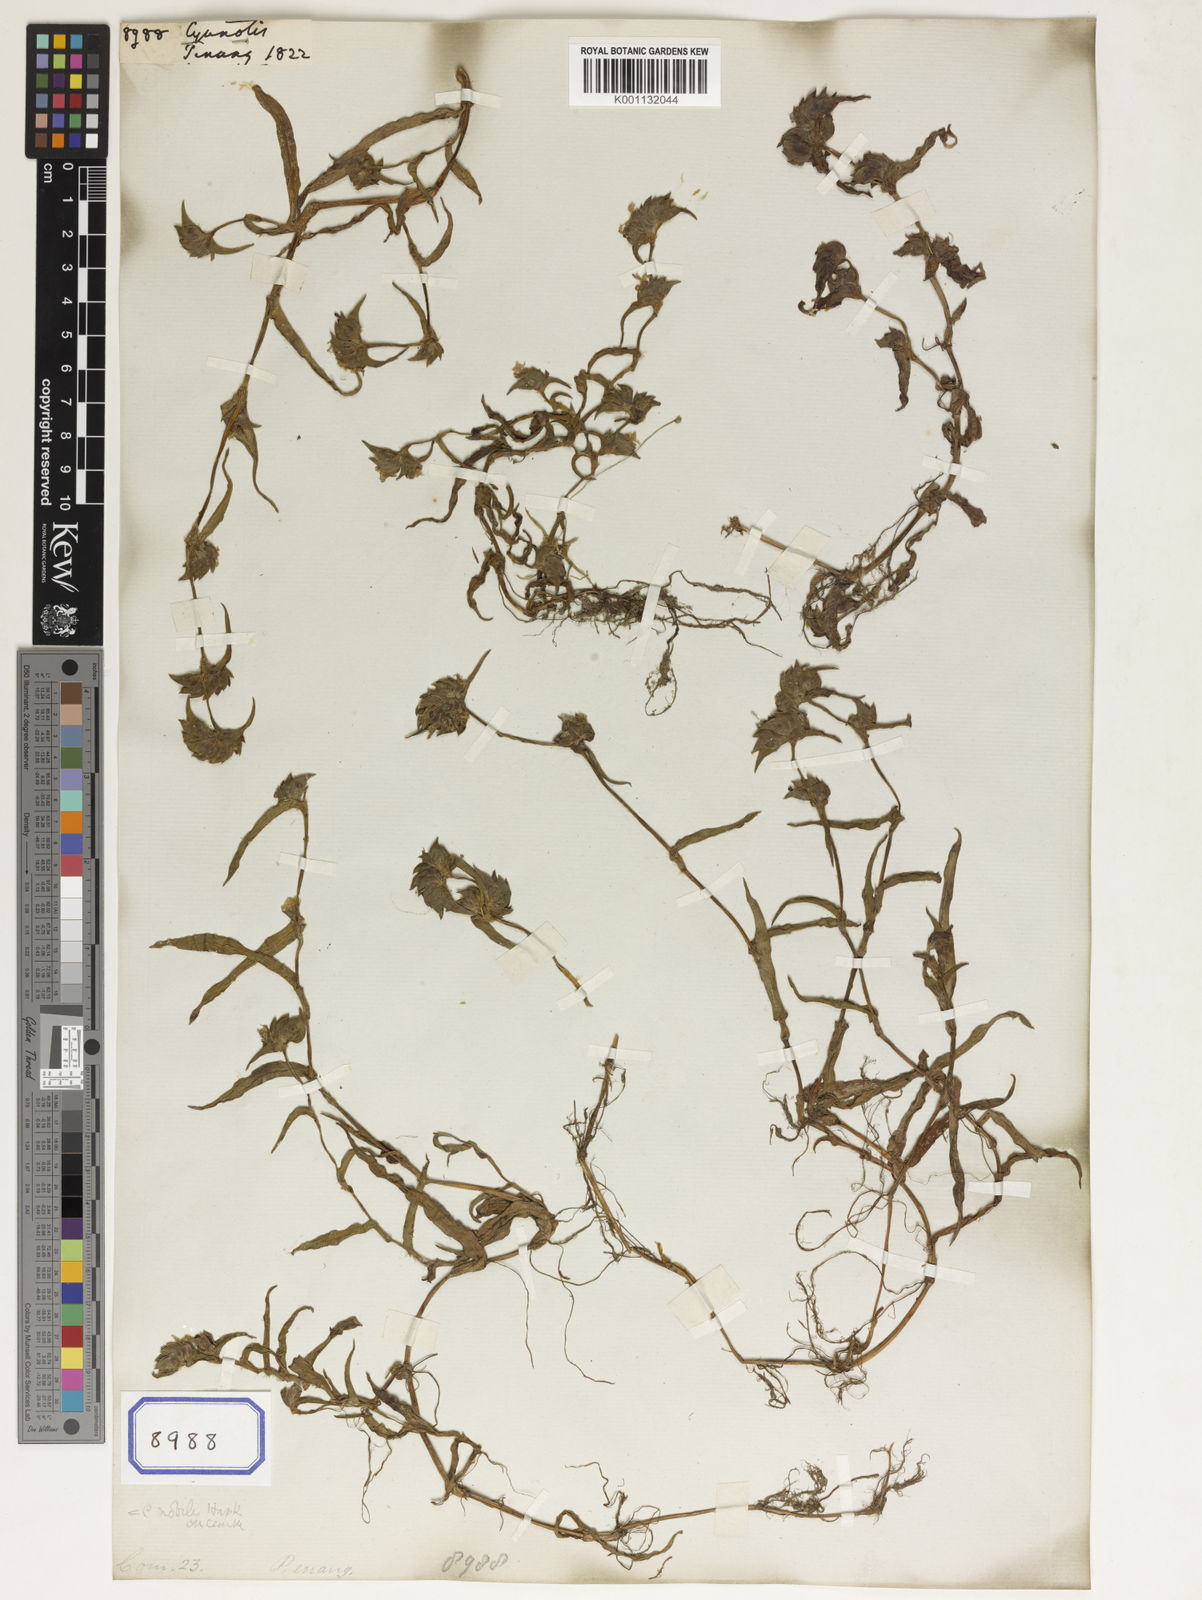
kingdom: Plantae
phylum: Tracheophyta
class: Liliopsida
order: Commelinales
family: Commelinaceae
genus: Cyanotis
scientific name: Cyanotis
